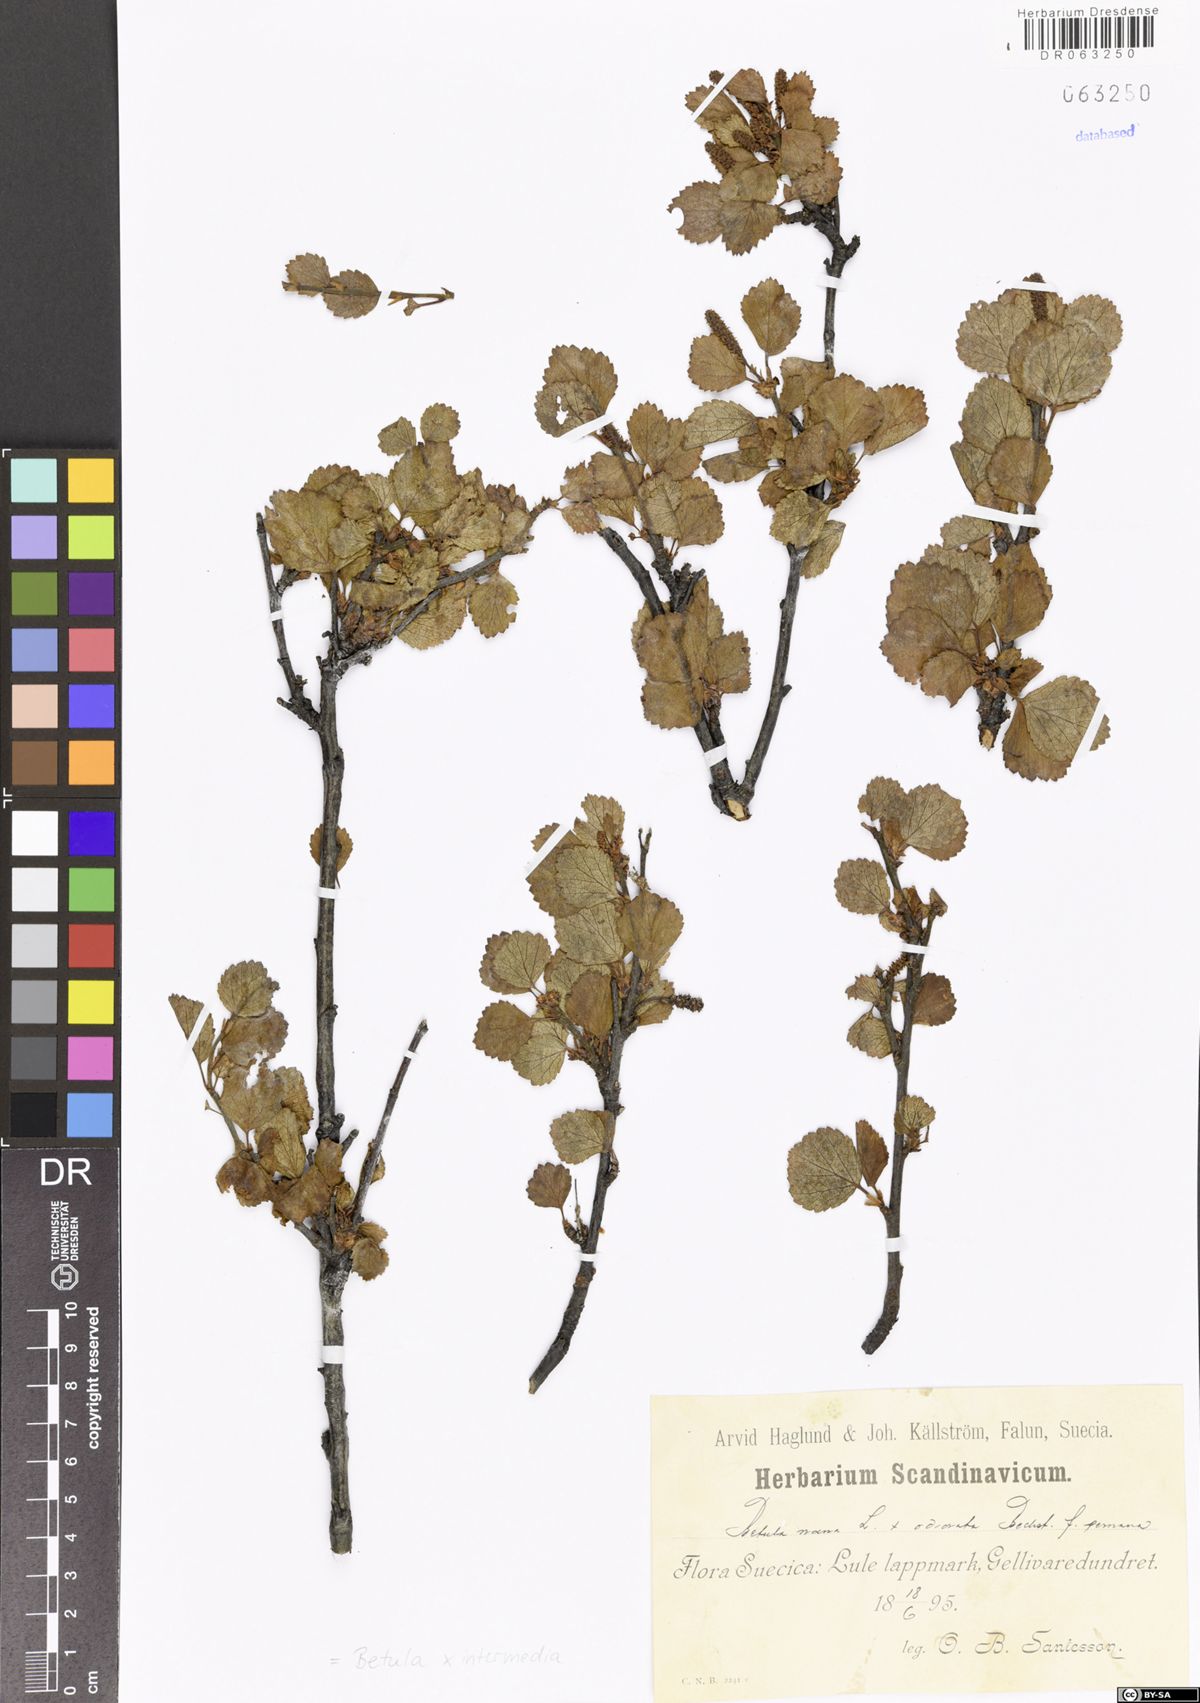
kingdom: Plantae
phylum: Tracheophyta
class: Magnoliopsida
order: Fagales
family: Betulaceae
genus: Betula
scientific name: Betula intermedia
